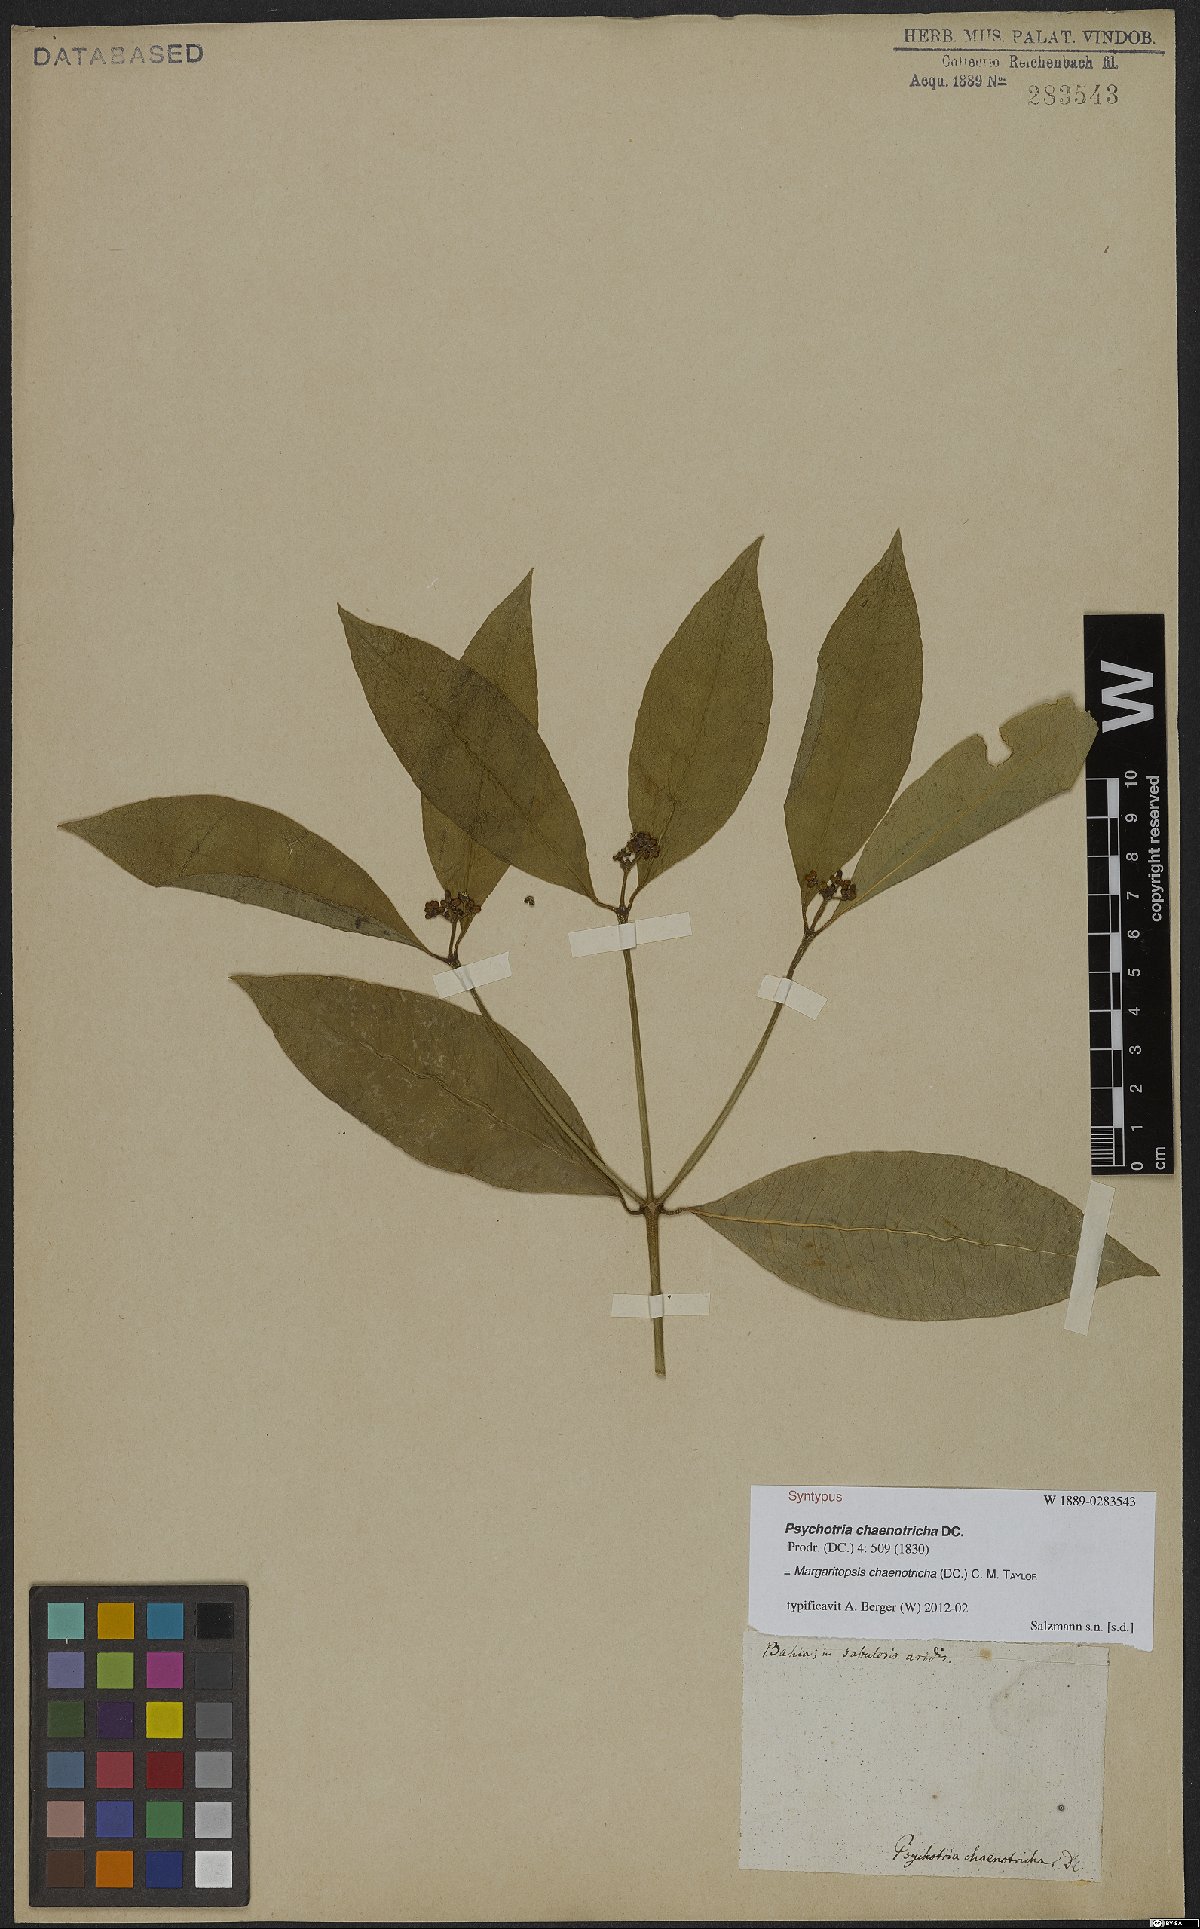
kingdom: Plantae
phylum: Tracheophyta
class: Magnoliopsida
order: Gentianales
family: Rubiaceae
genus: Eumachia
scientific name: Eumachia chaenotricha
